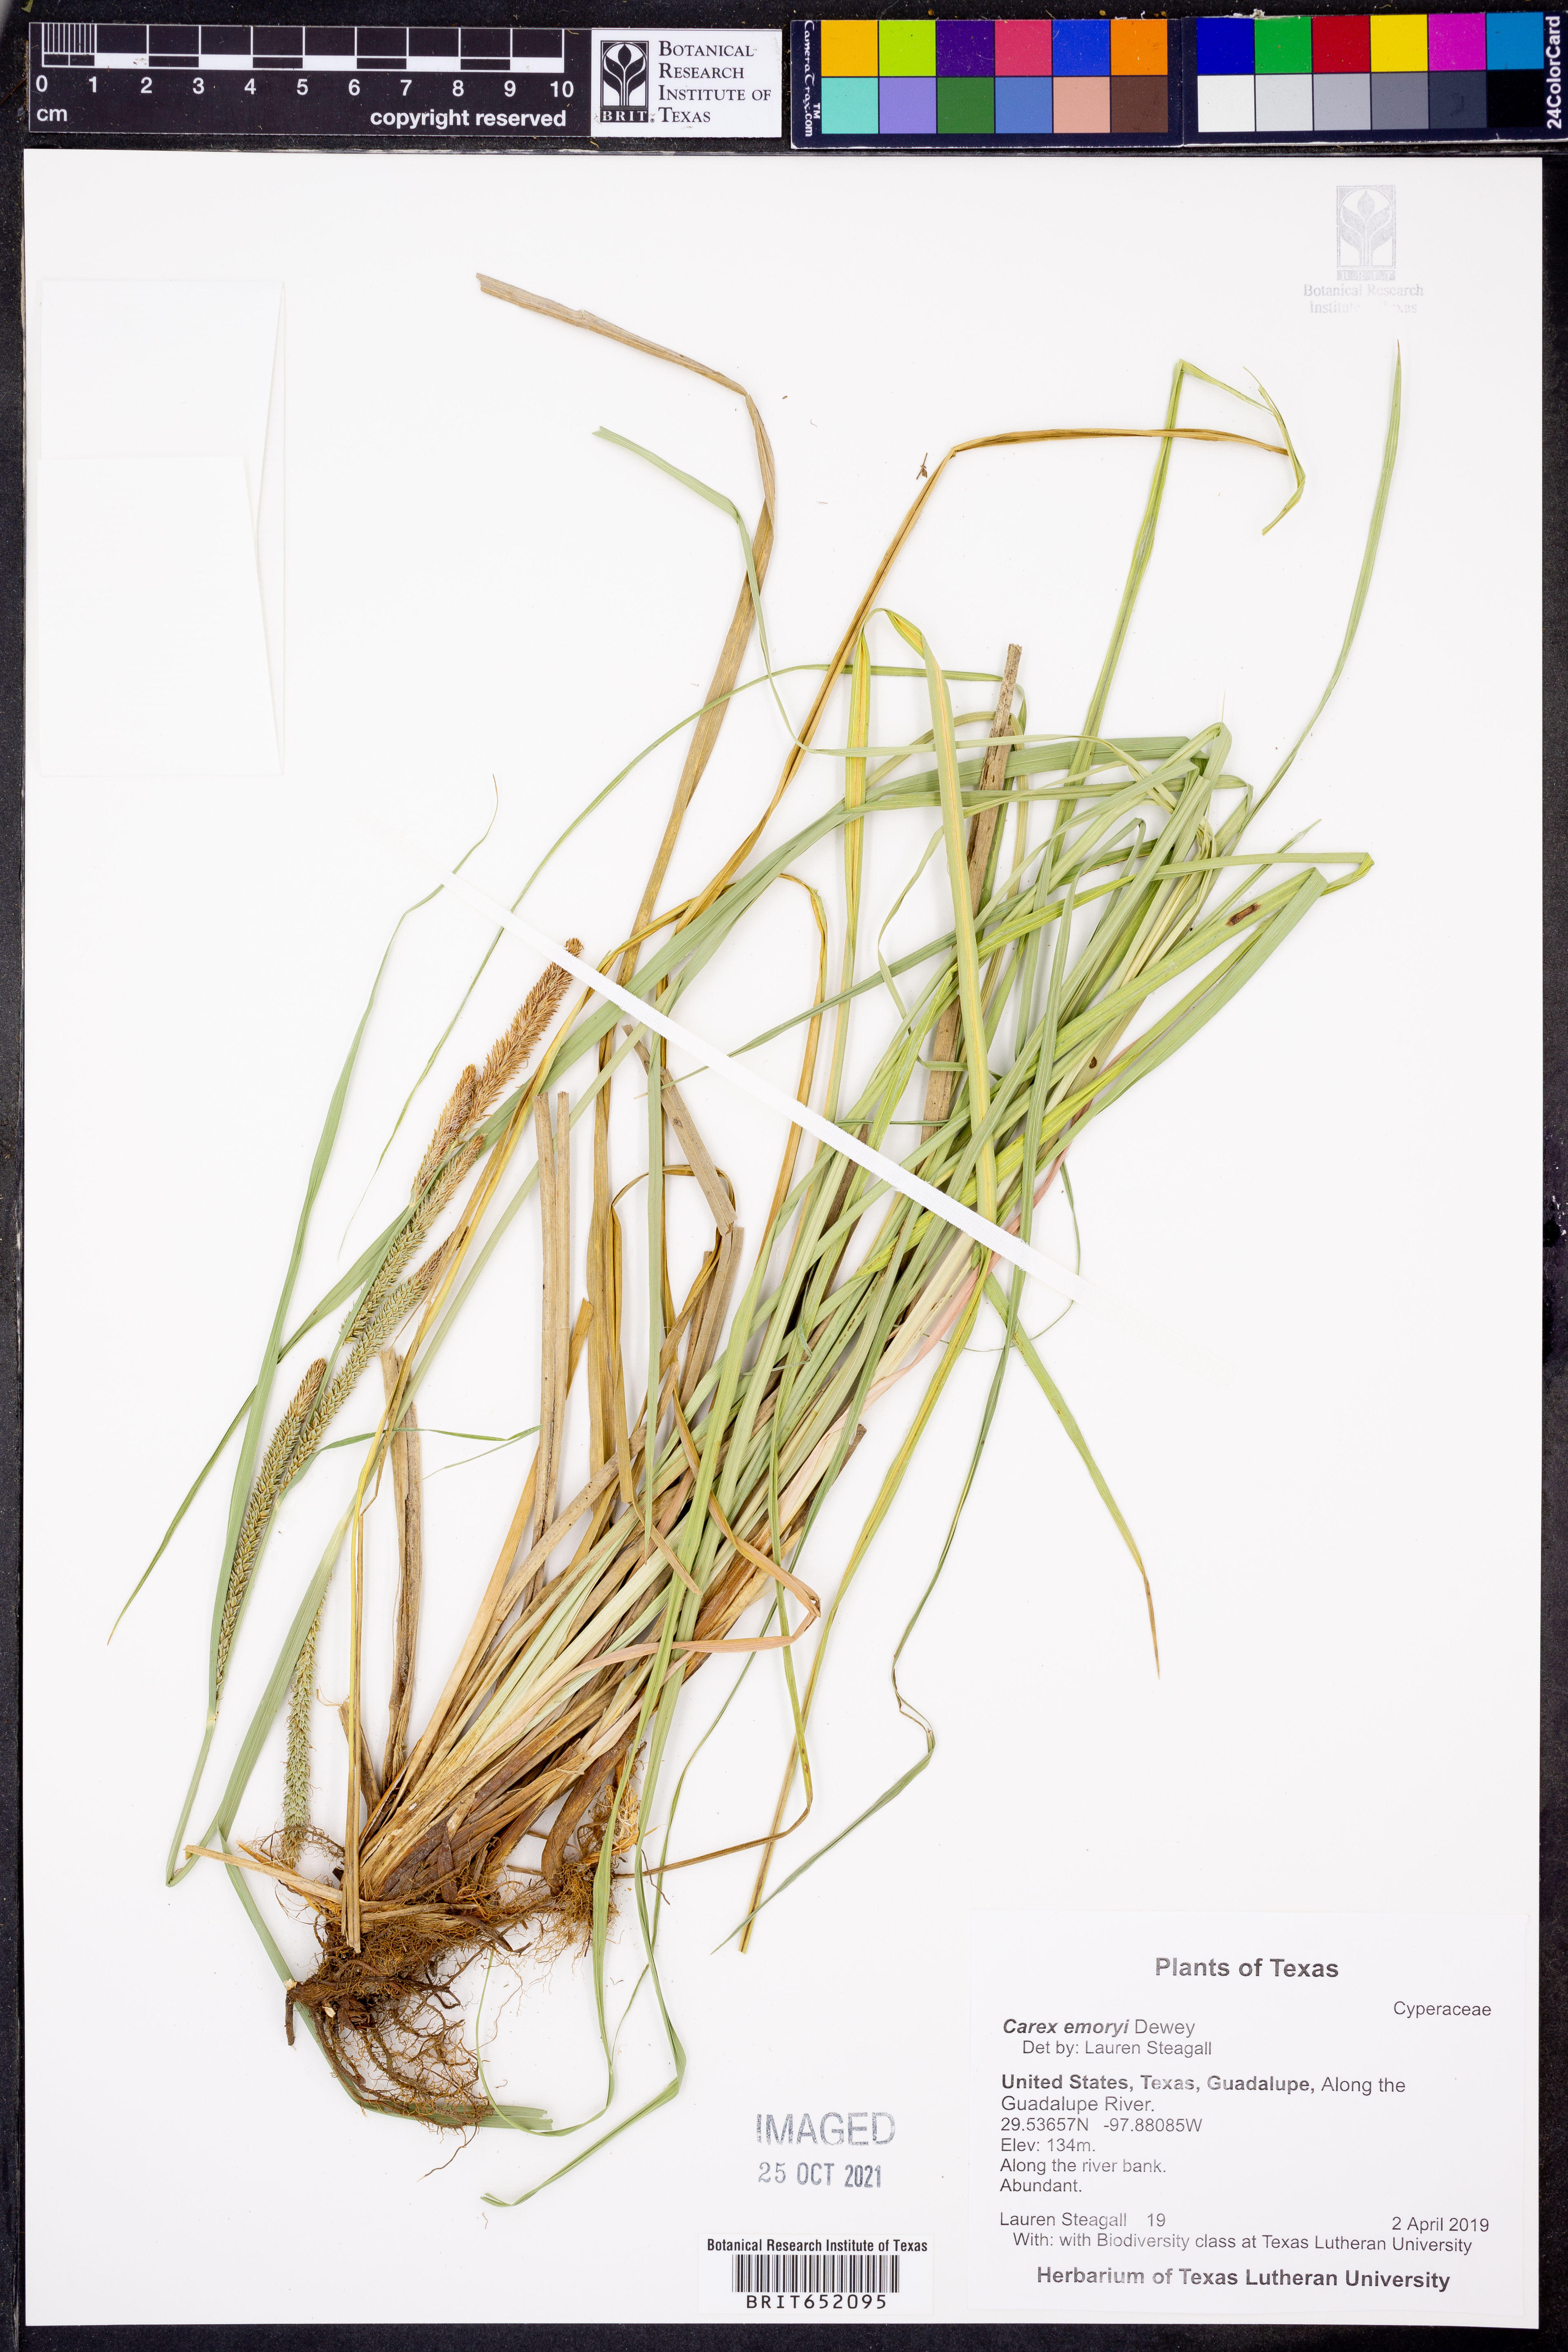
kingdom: Plantae
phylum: Tracheophyta
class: Liliopsida
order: Poales
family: Cyperaceae
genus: Carex
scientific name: Carex emoryi
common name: Emory's sedge
